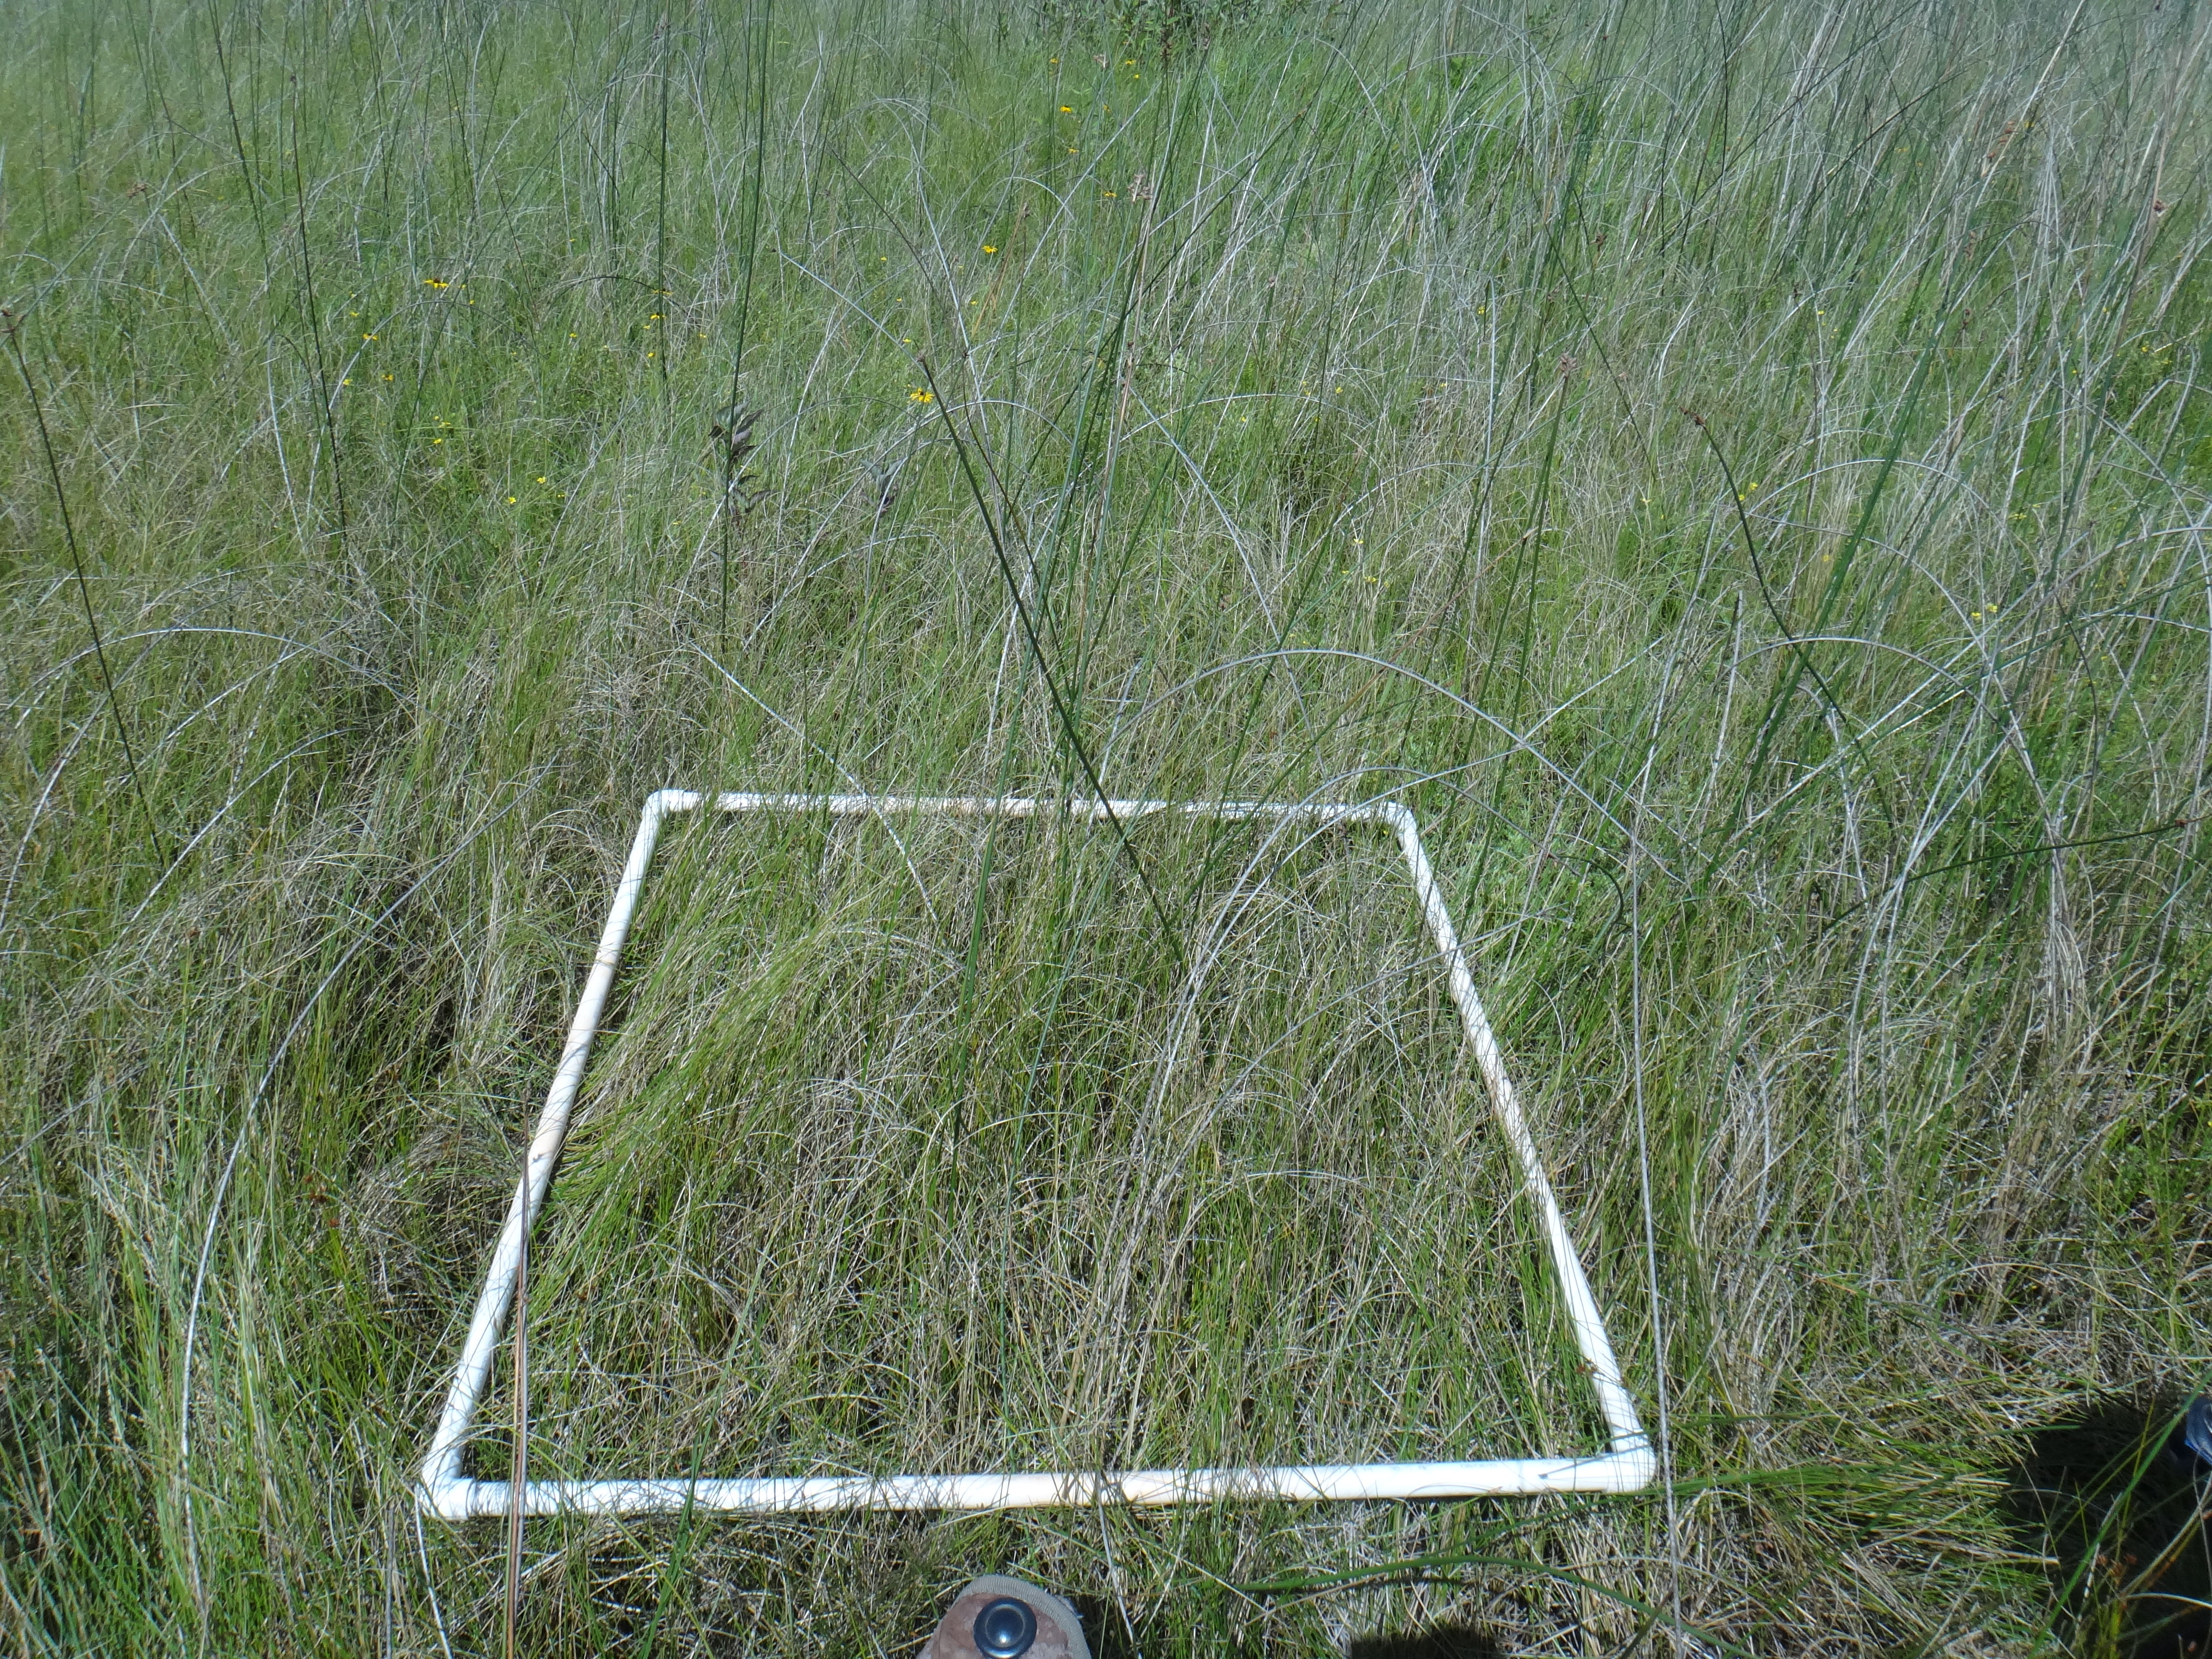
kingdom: Plantae
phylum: Tracheophyta
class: Magnoliopsida
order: Rosales
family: Rosaceae
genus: Dasiphora
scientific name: Dasiphora fruticosa
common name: Shrubby cinquefoil
